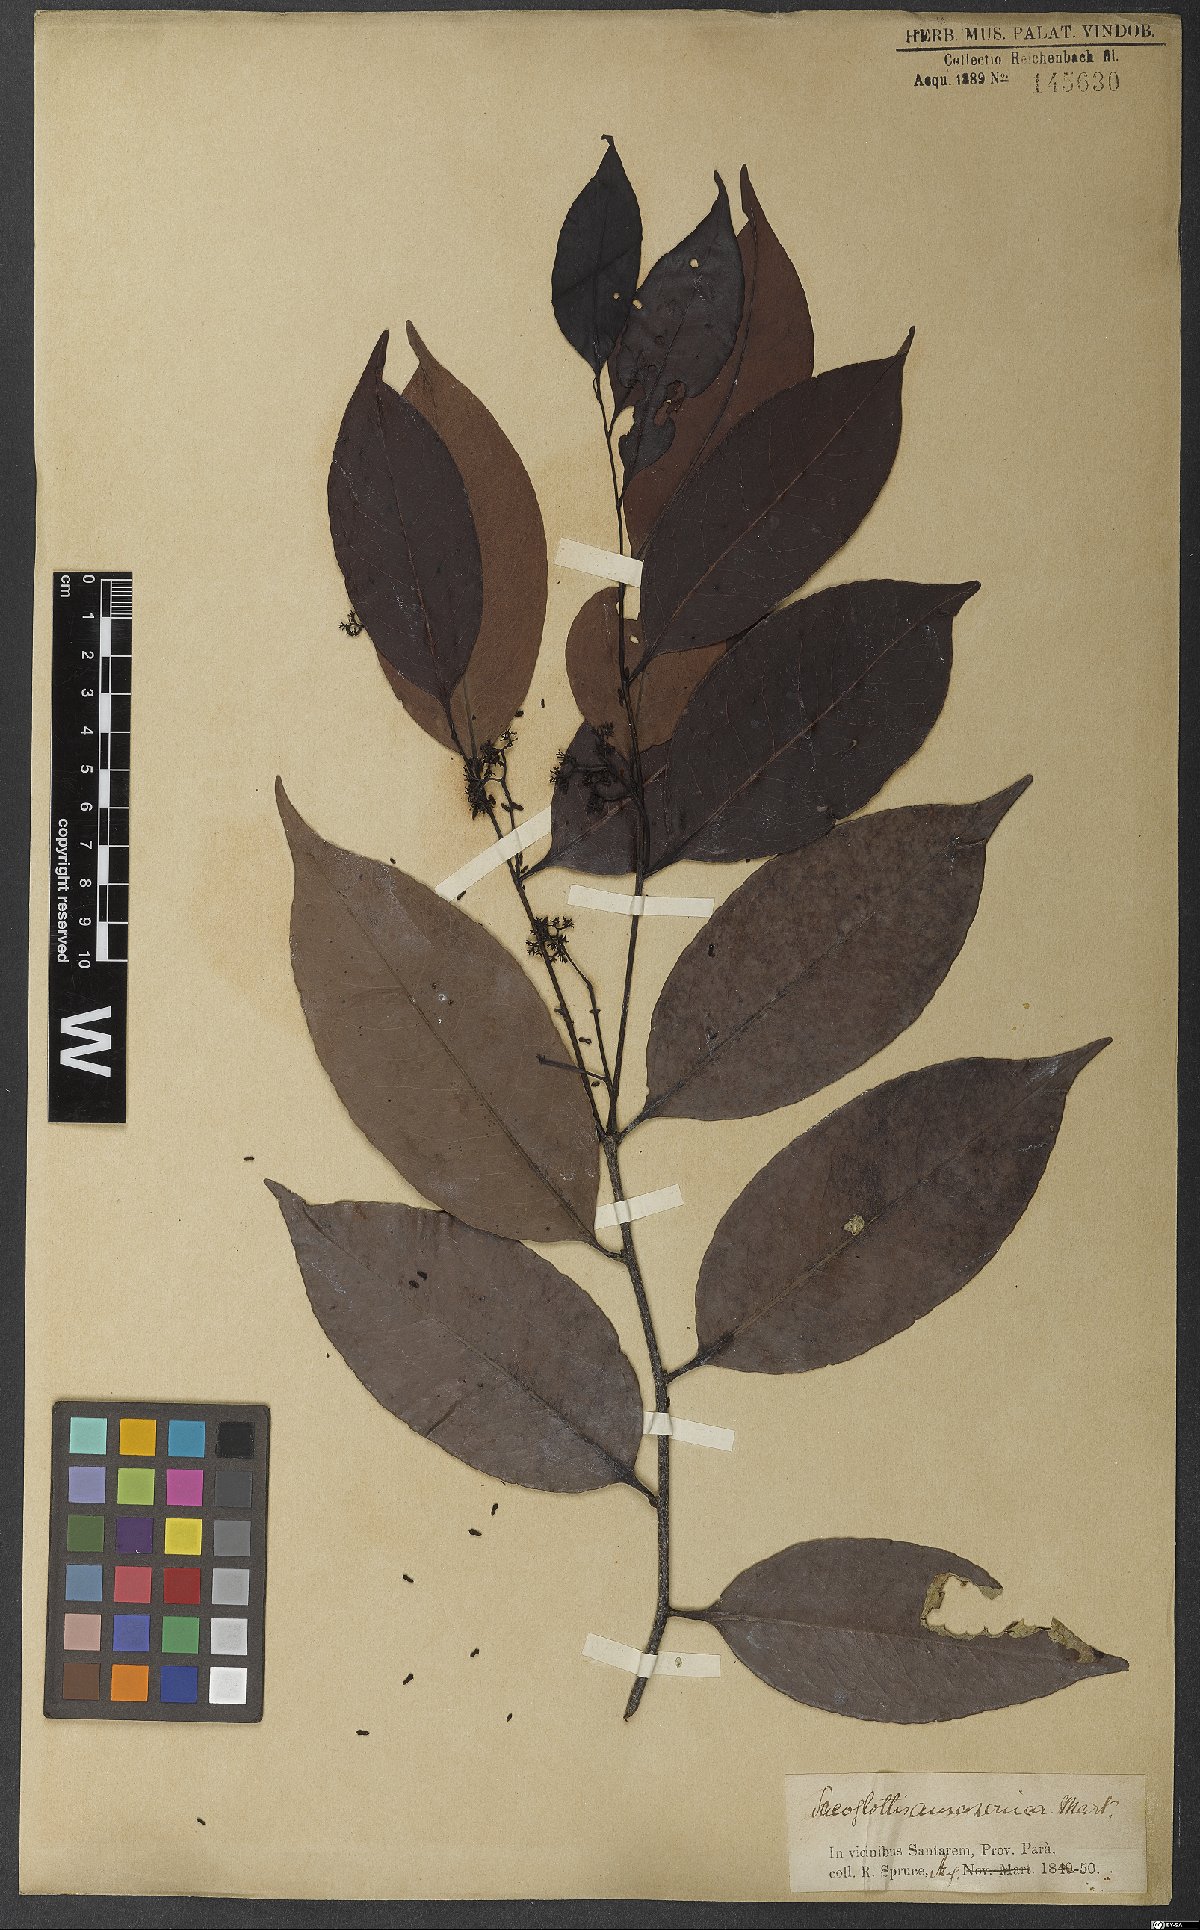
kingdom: Plantae
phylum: Tracheophyta
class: Magnoliopsida
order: Malpighiales
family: Humiriaceae
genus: Sacoglottis
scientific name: Sacoglottis amazonica
